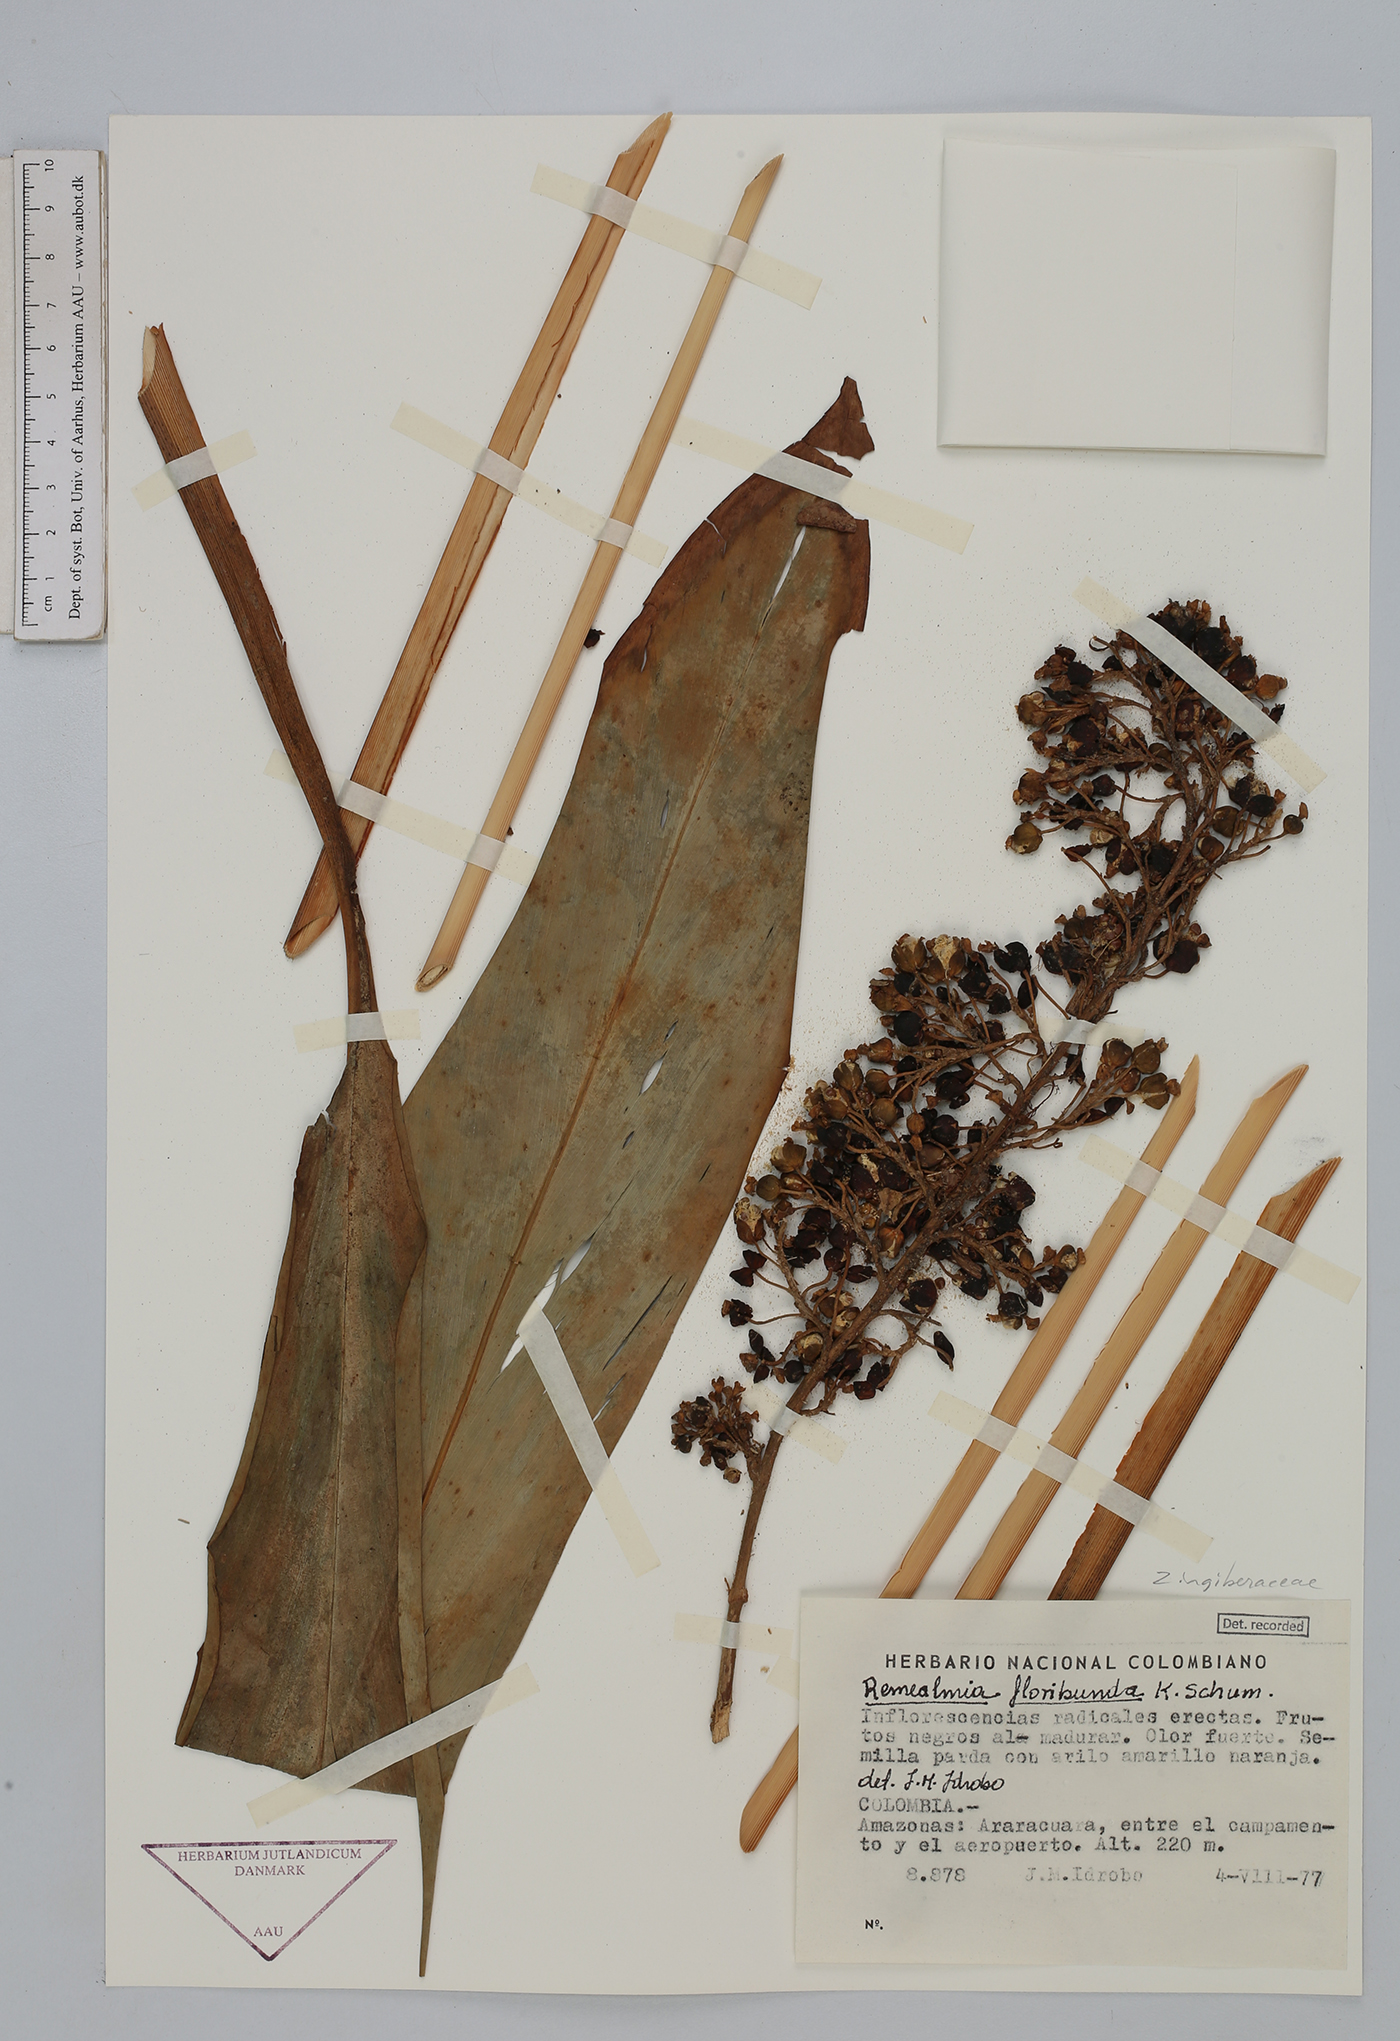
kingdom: Plantae
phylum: Tracheophyta
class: Liliopsida
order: Zingiberales
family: Zingiberaceae
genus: Renealmia
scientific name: Renealmia floribunda
